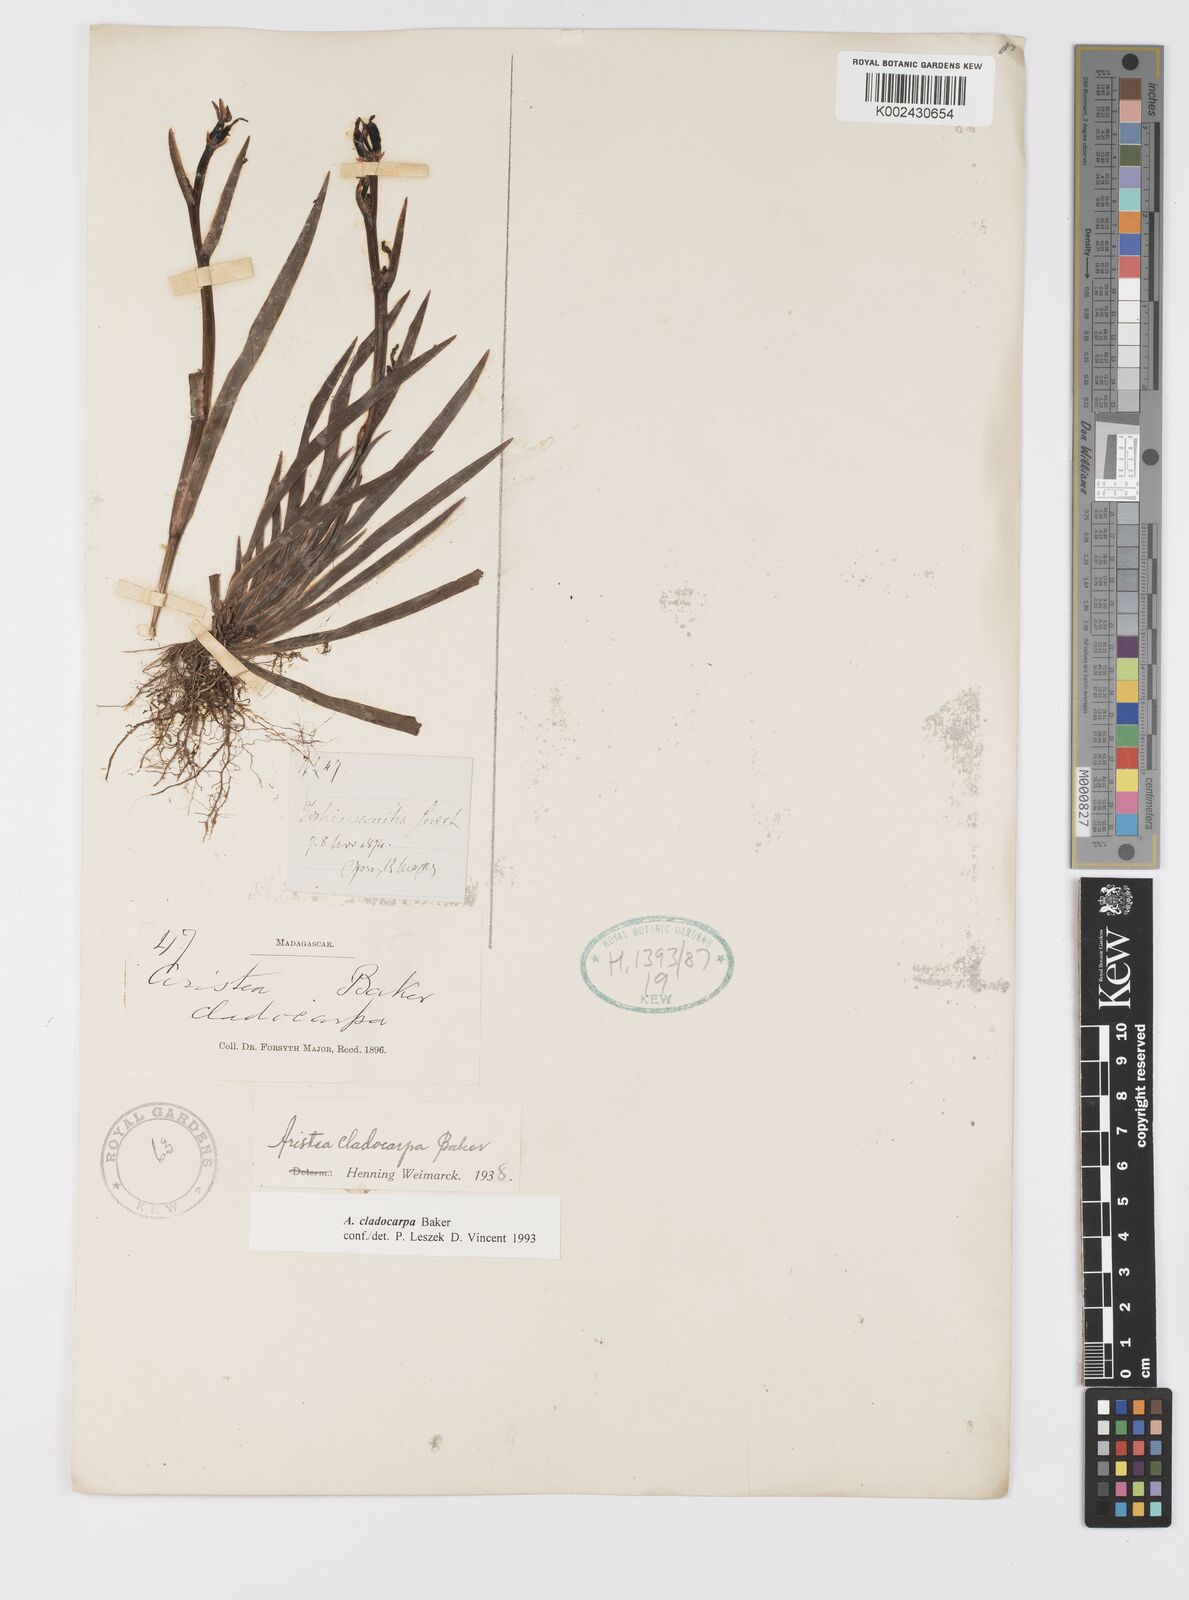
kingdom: Plantae
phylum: Tracheophyta
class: Liliopsida
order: Asparagales
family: Iridaceae
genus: Aristea
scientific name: Aristea cladocarpa
